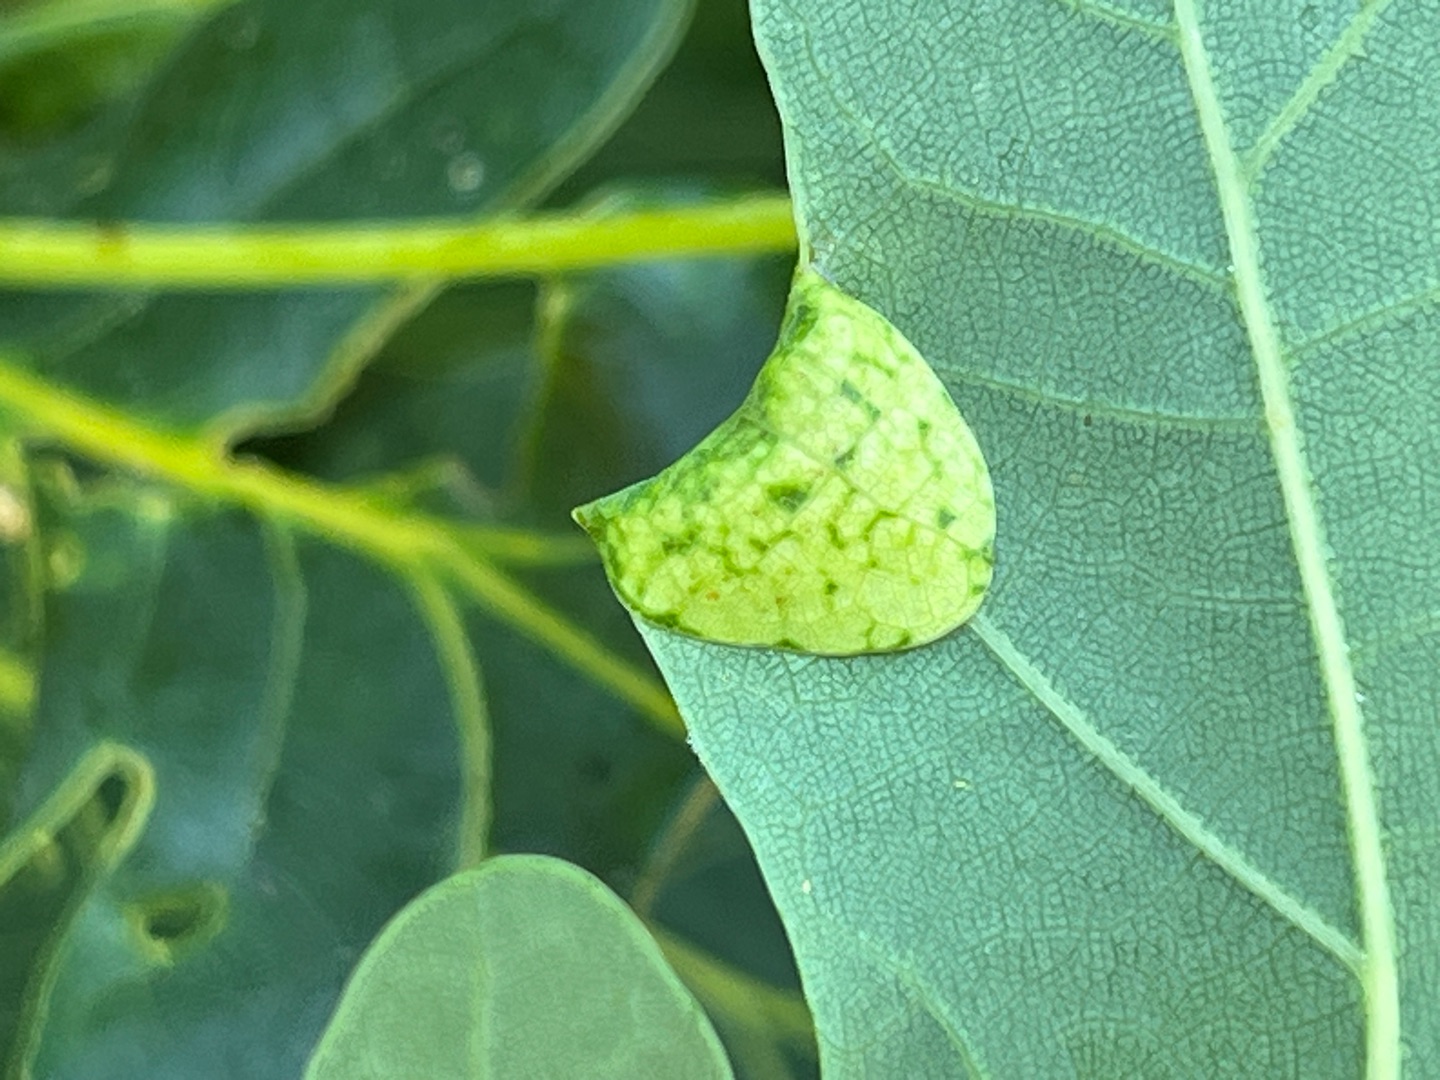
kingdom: Animalia
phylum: Arthropoda
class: Insecta
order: Diptera
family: Cecidomyiidae
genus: Macrodiplosis
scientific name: Macrodiplosis pustularis
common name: Marmorgalmyg
